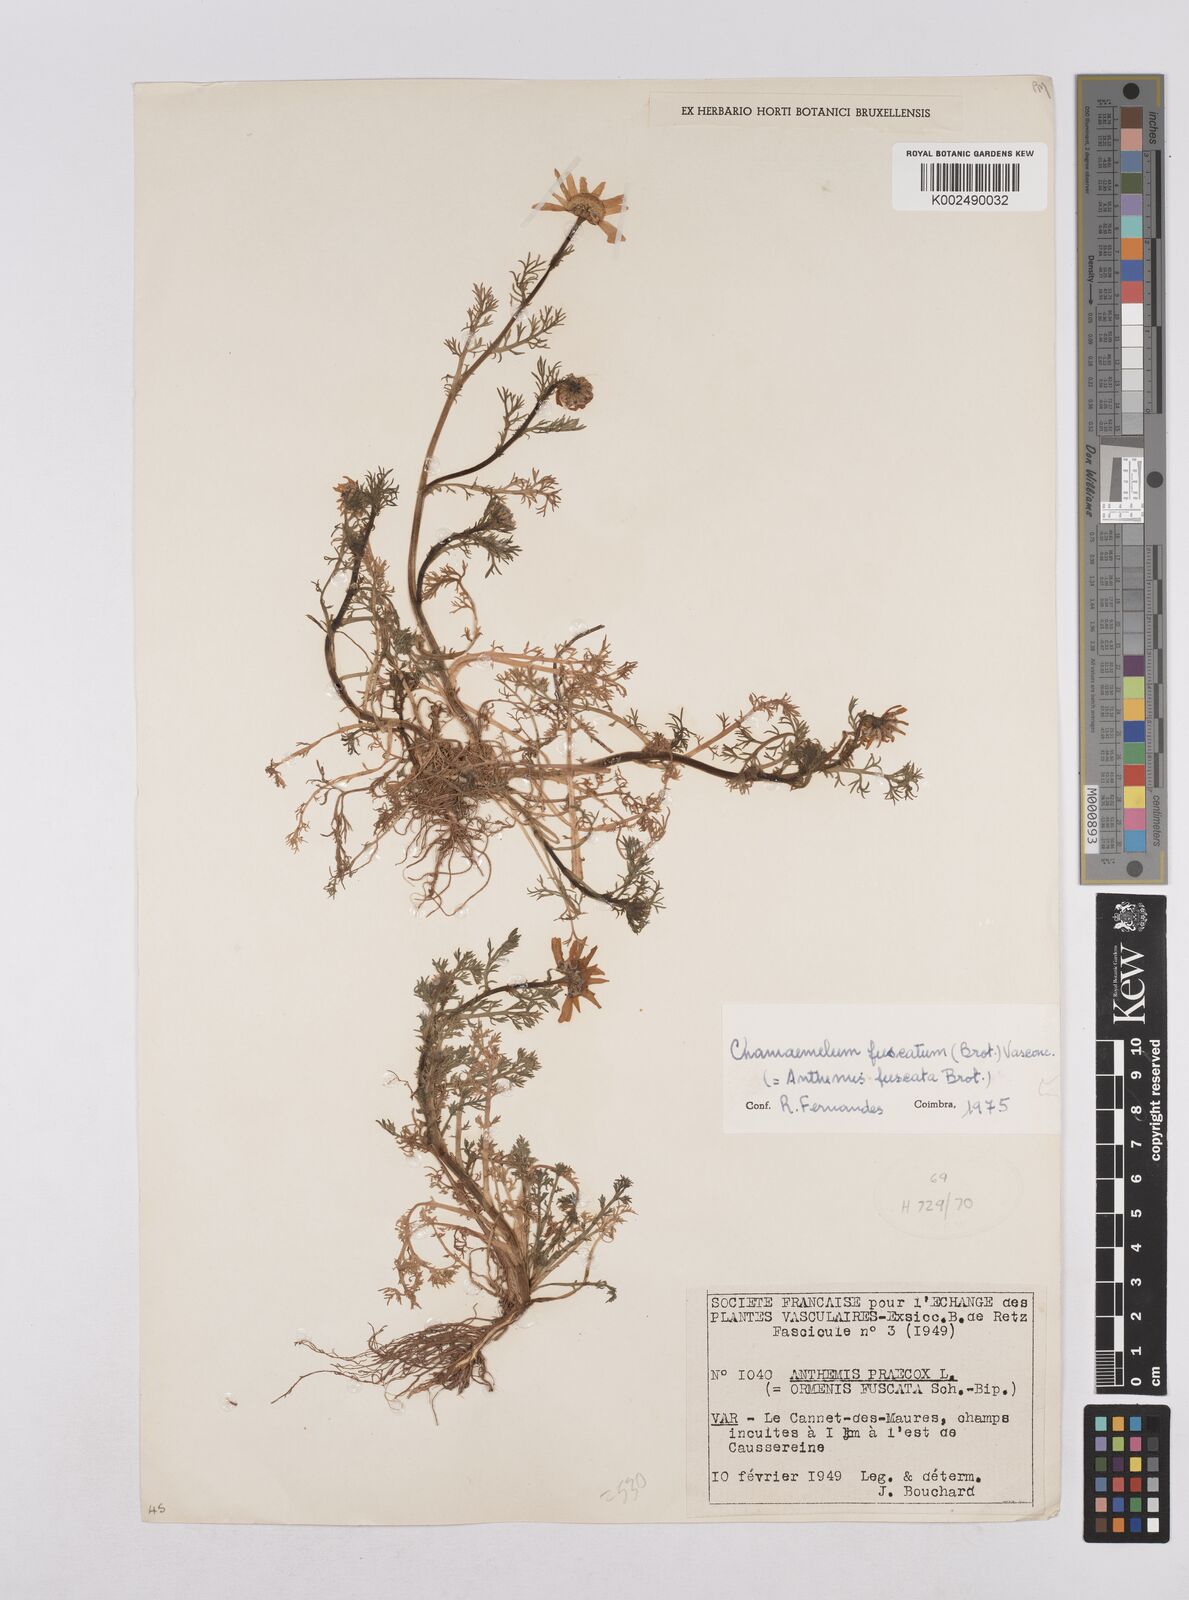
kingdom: Plantae
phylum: Tracheophyta
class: Magnoliopsida
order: Asterales
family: Asteraceae
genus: Chamaemelum
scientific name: Chamaemelum fuscatum
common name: Chamomile
